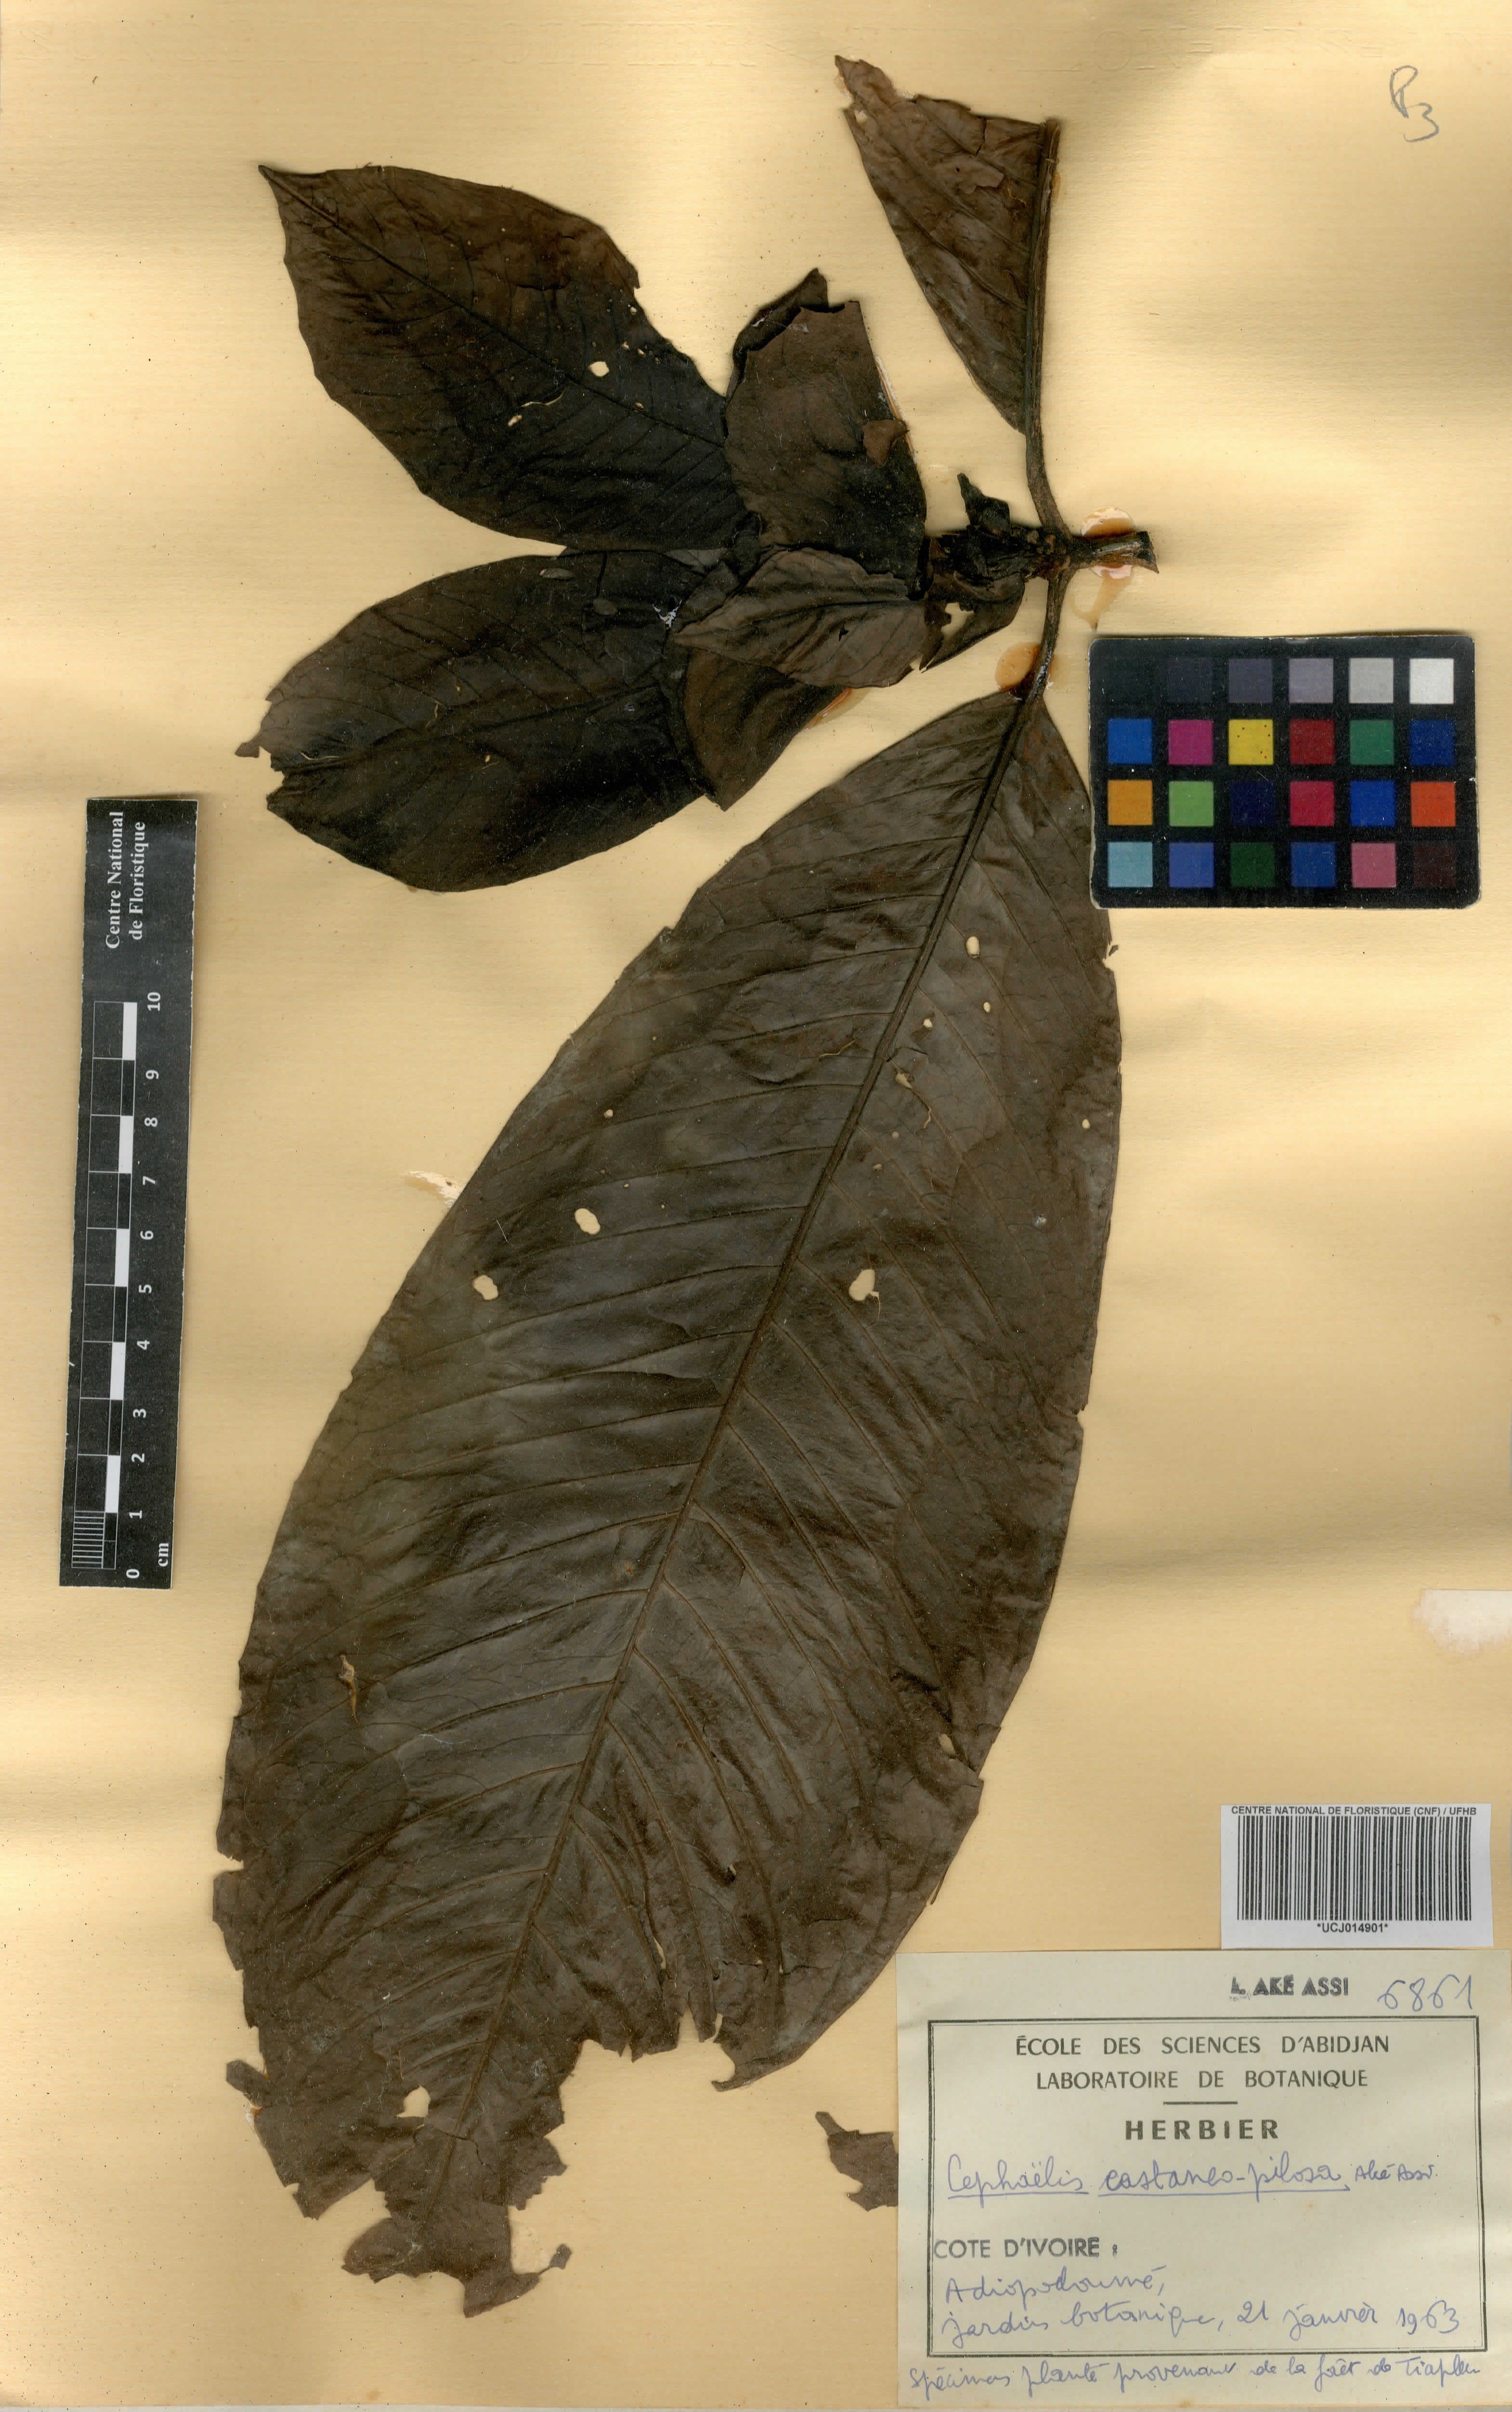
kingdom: Plantae
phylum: Tracheophyta
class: Magnoliopsida
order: Gentianales
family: Rubiaceae
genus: Psychotria
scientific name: Psychotria Cephaelis castaneopilosa
